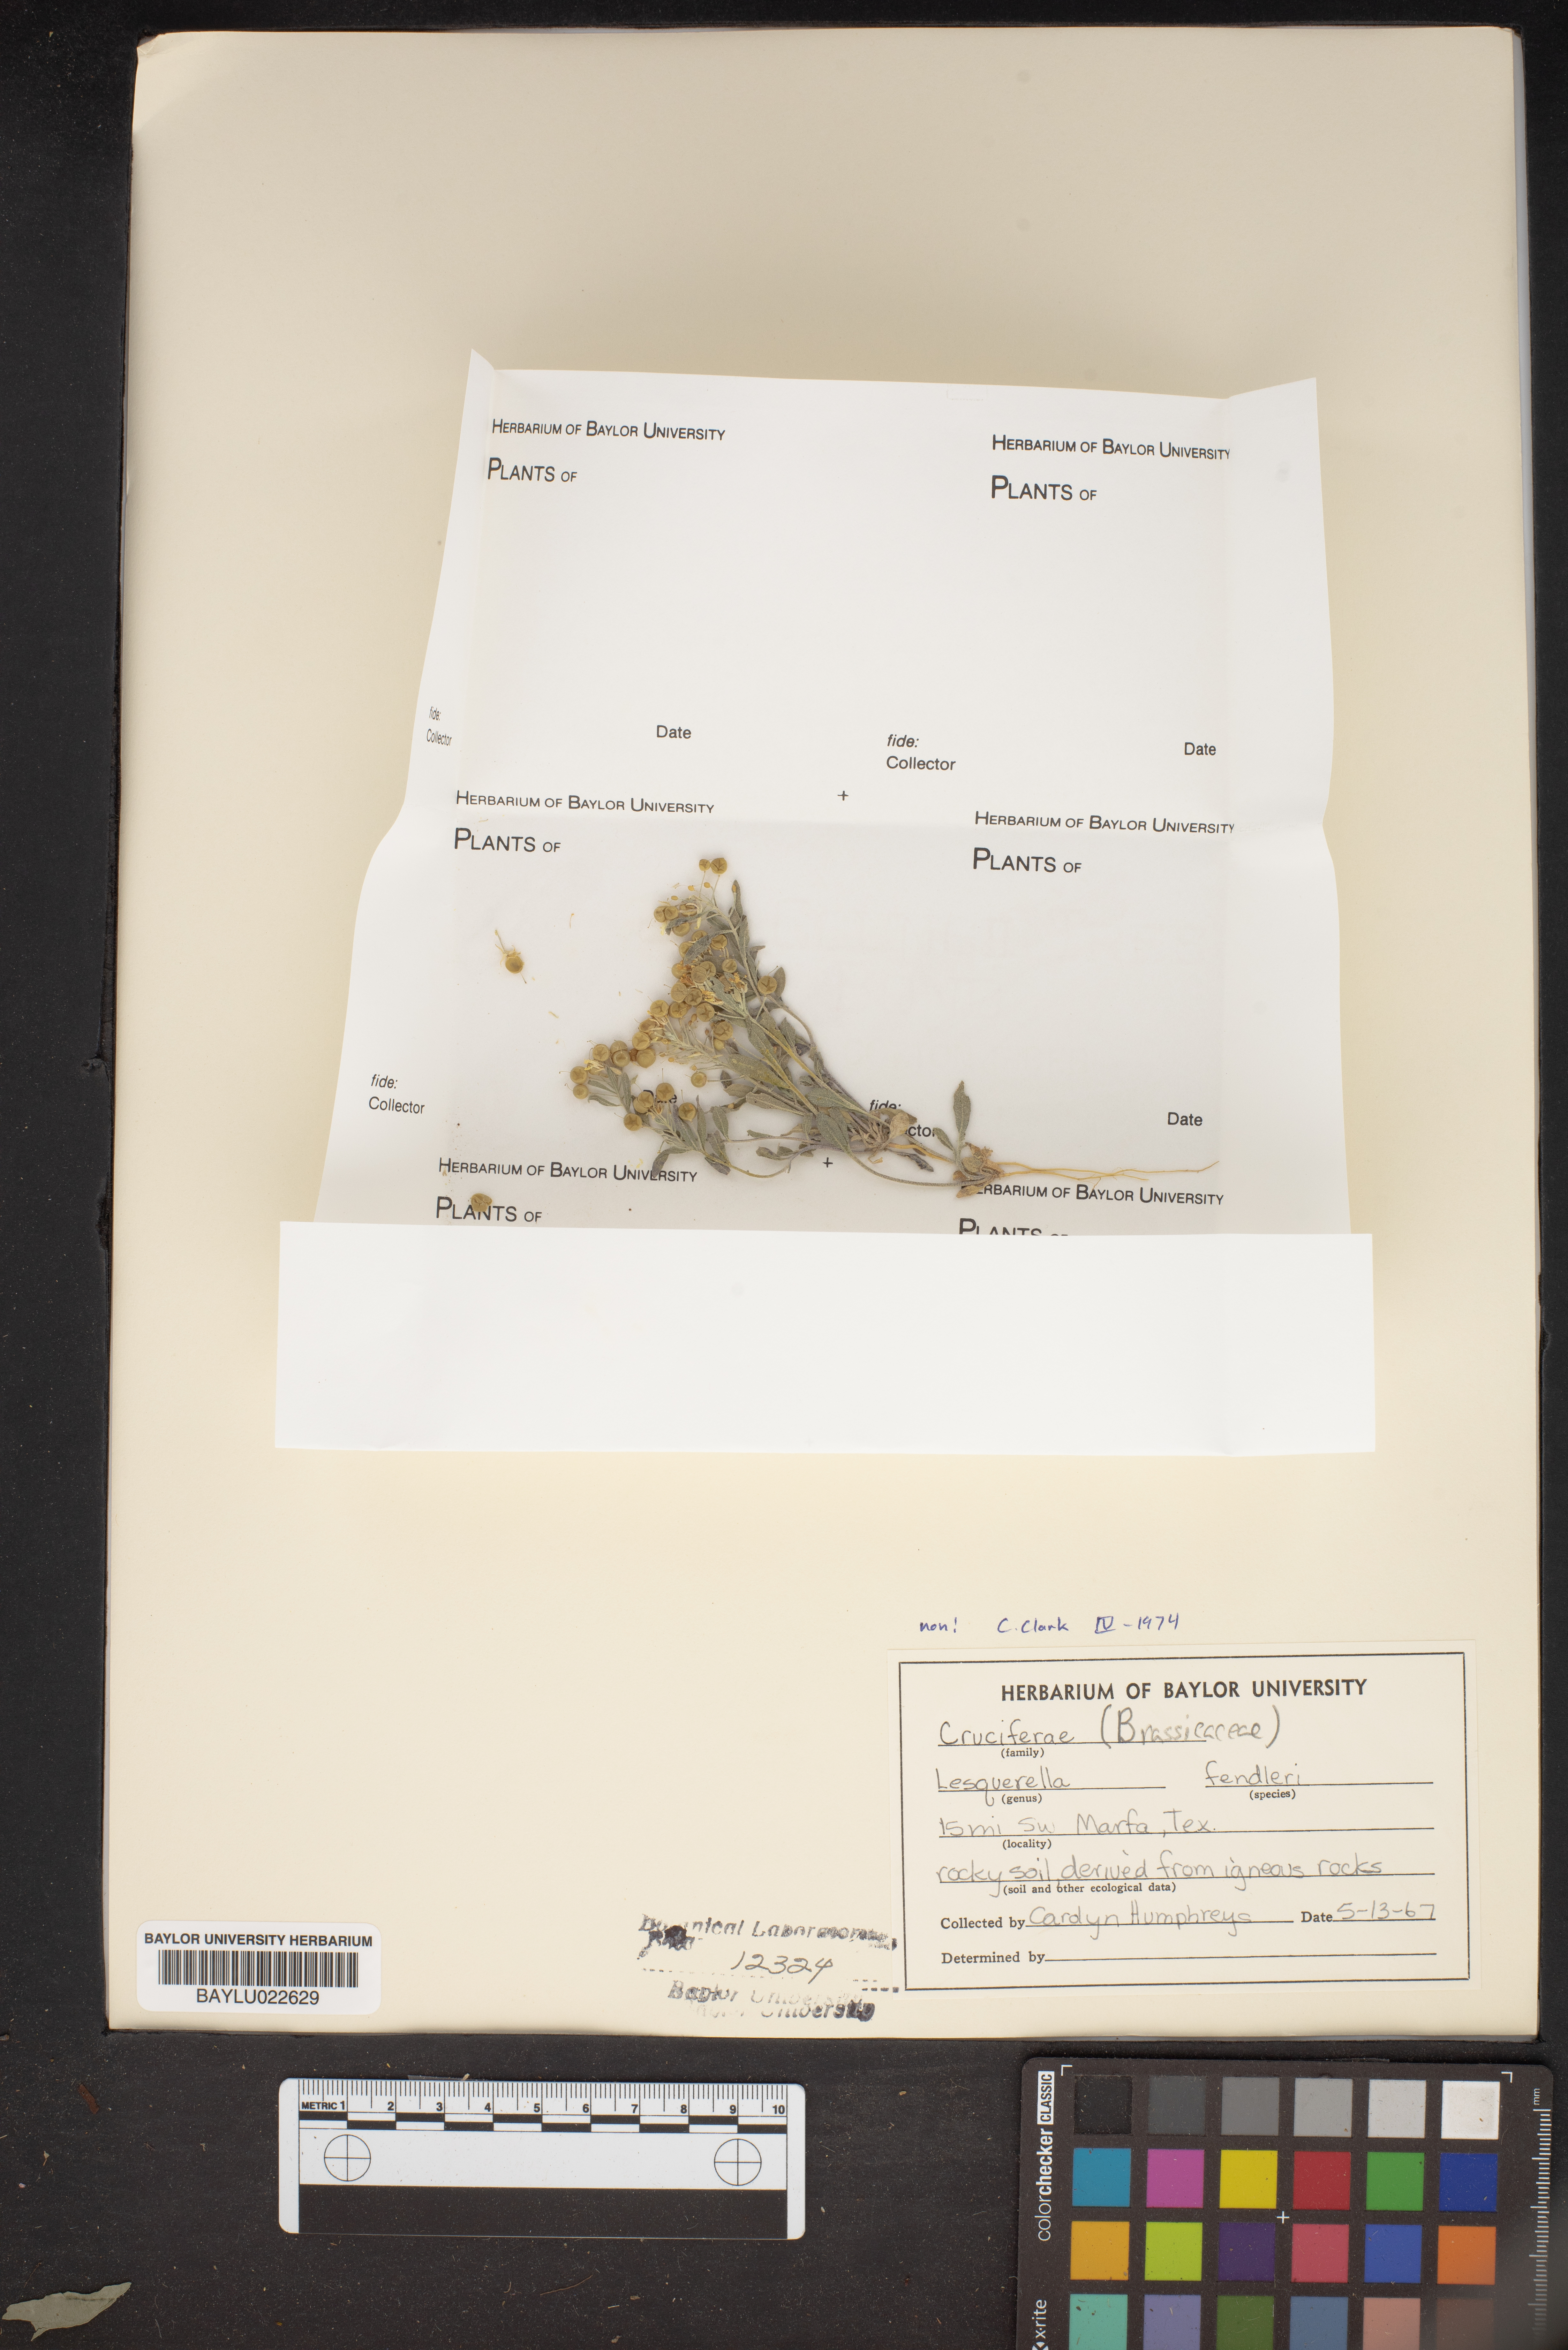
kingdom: Plantae
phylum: Tracheophyta
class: Magnoliopsida
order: Brassicales
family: Brassicaceae
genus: Physaria
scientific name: Physaria fendleri
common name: Fendler's bladderpod
